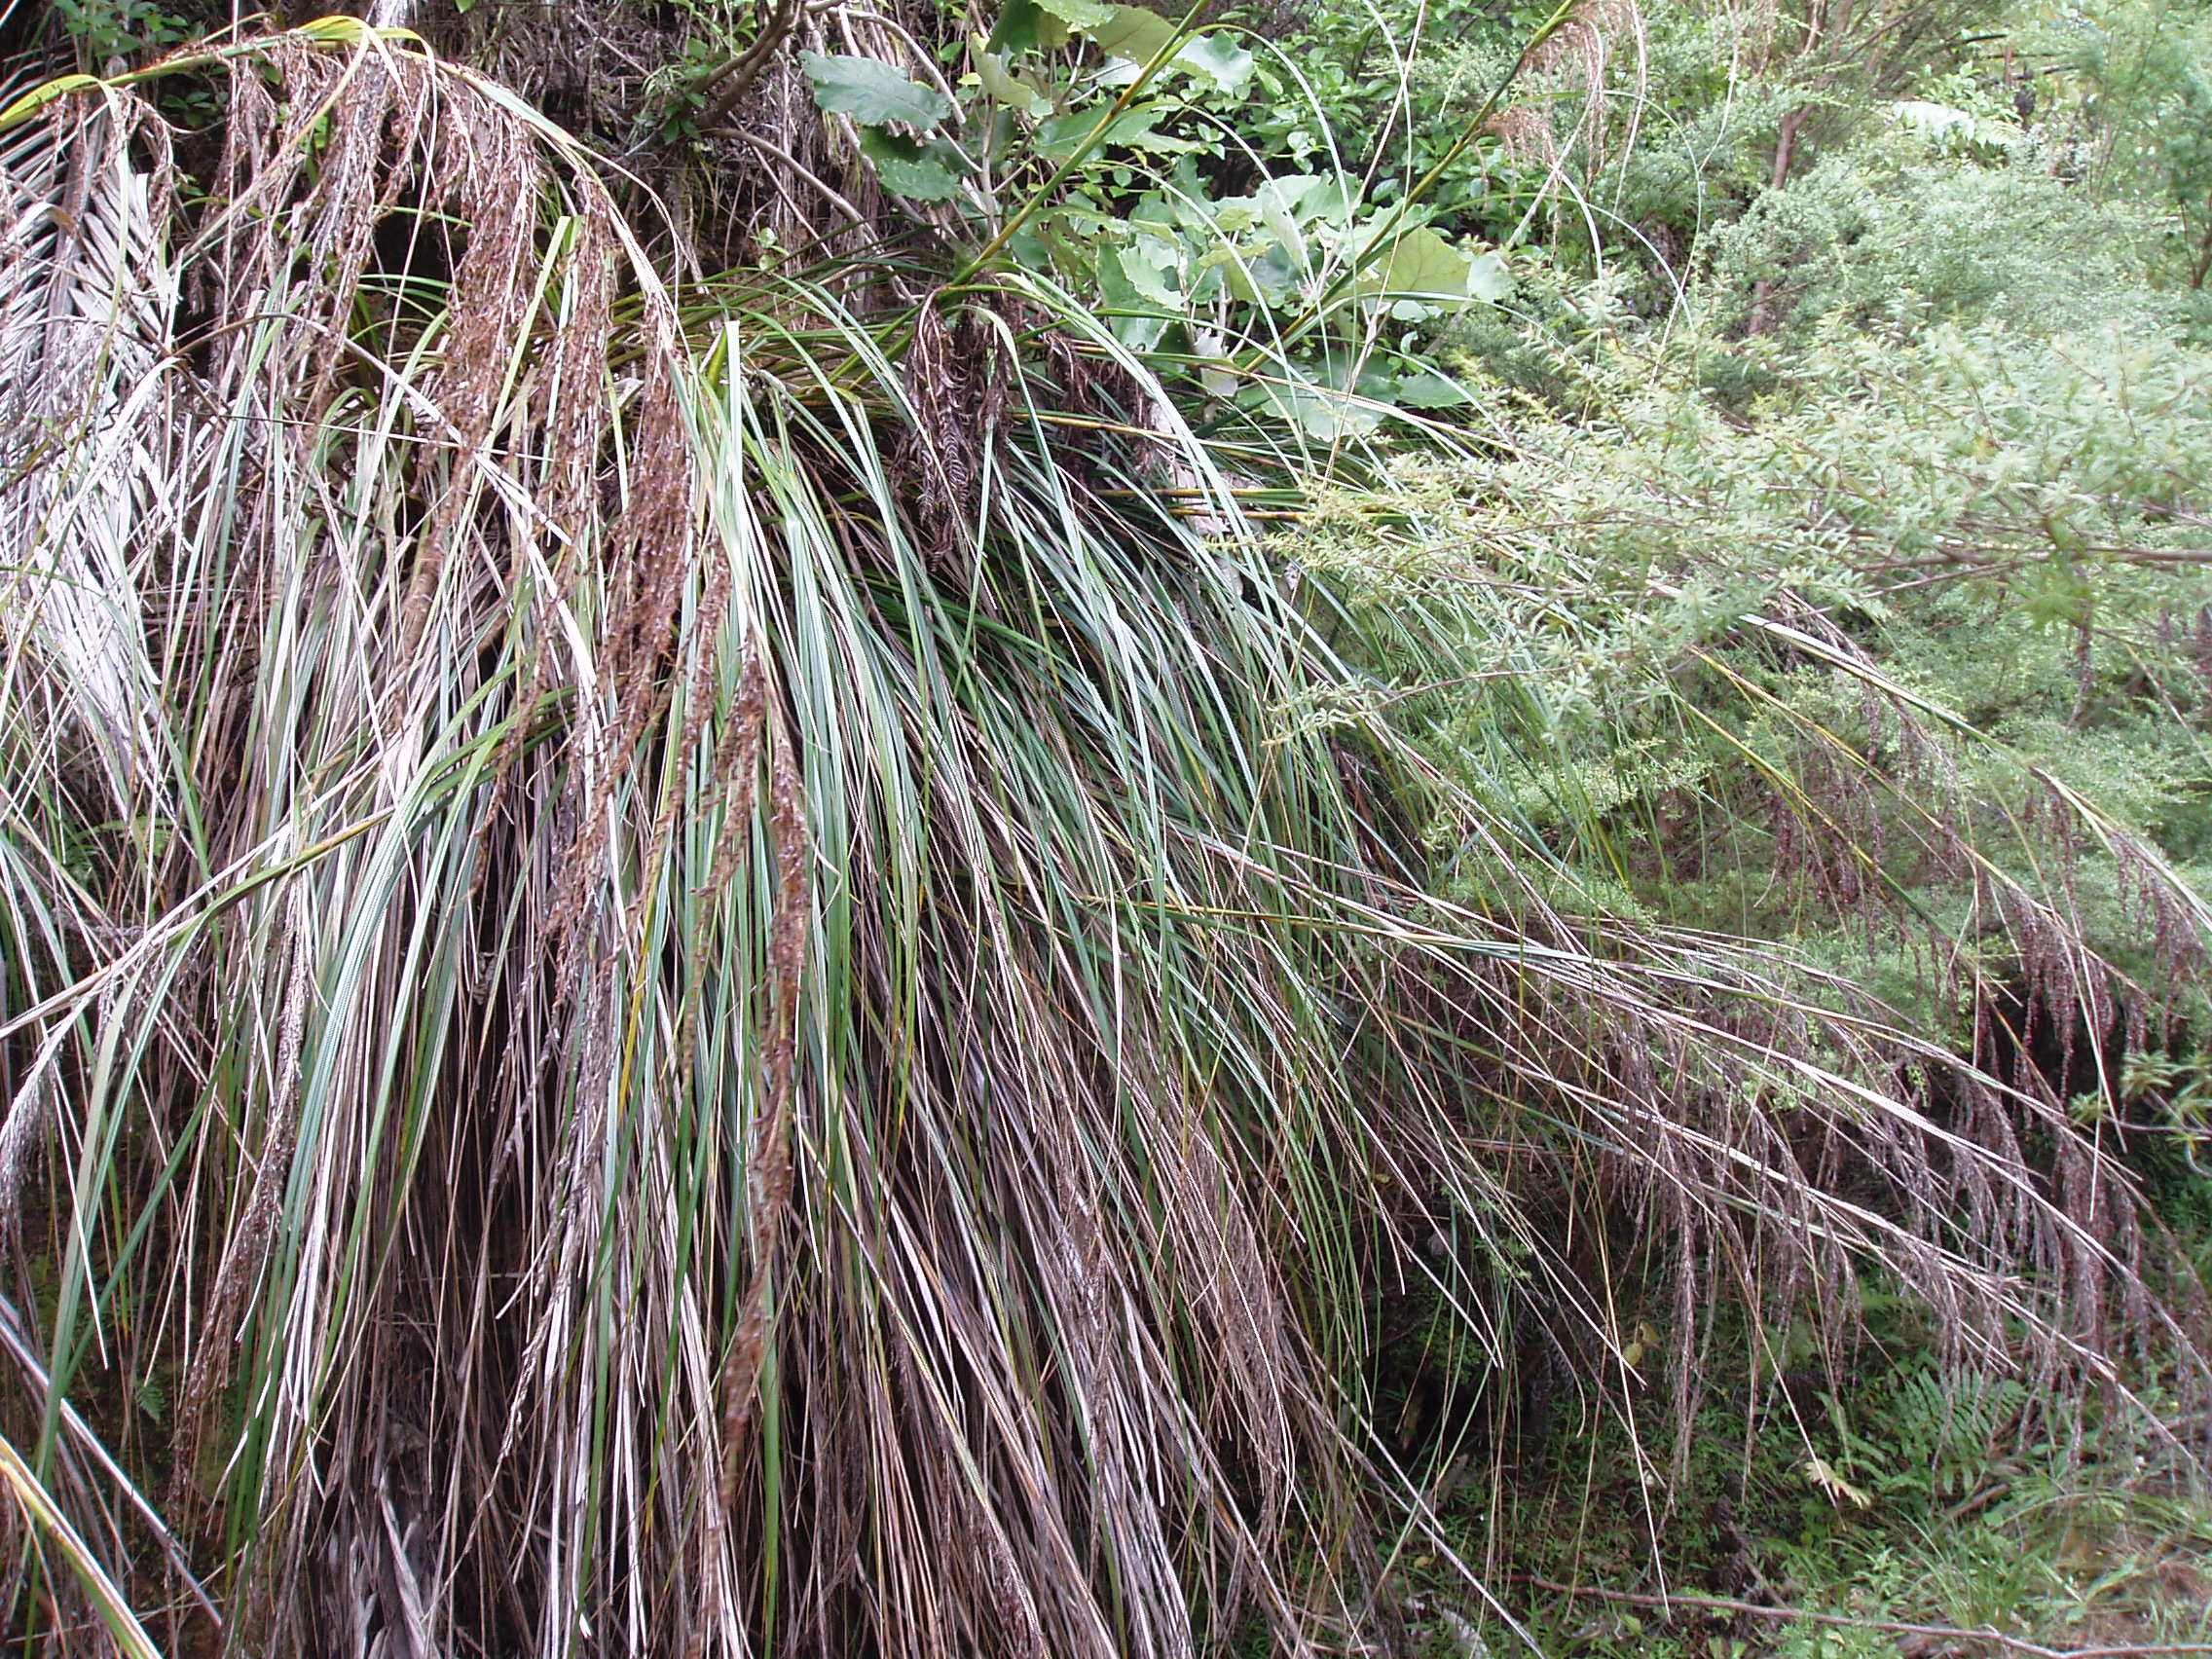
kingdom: Plantae
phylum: Tracheophyta
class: Liliopsida
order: Poales
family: Cyperaceae
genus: Gahnia
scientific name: Gahnia setifolia
